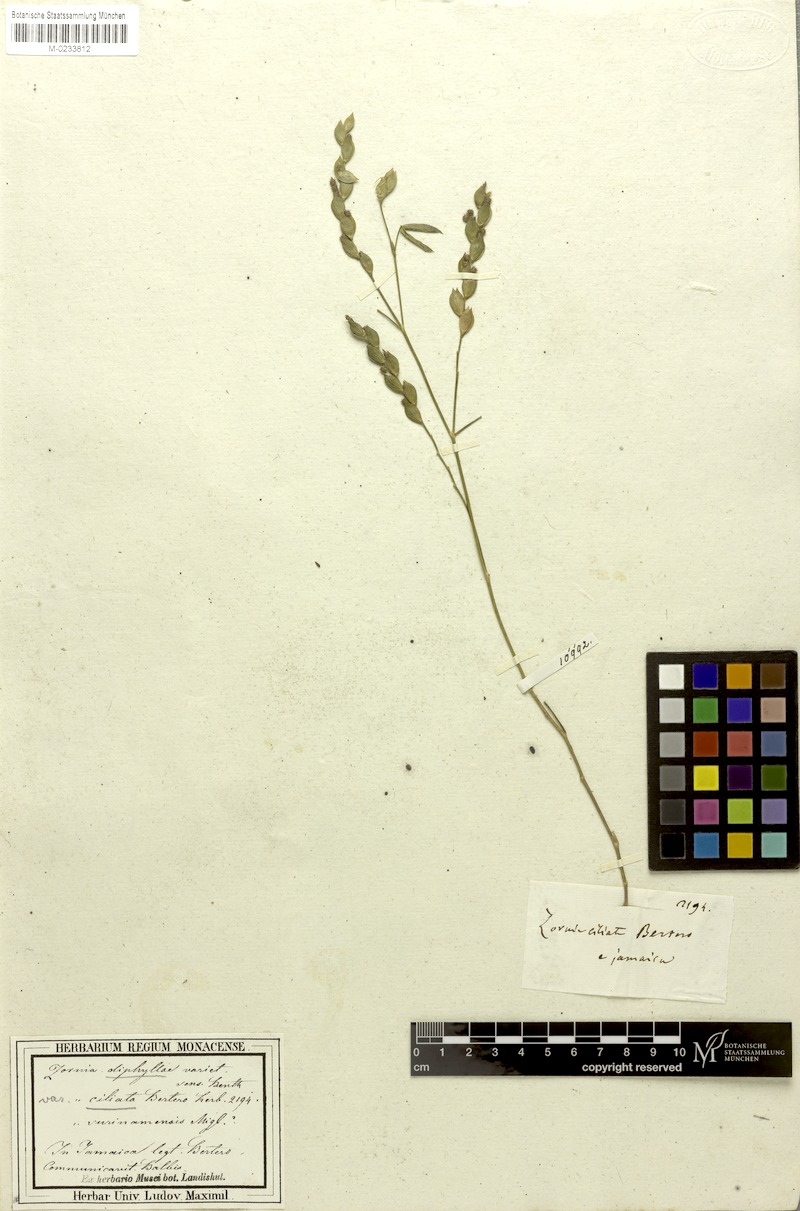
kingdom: Plantae
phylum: Tracheophyta
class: Magnoliopsida
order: Fabales
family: Fabaceae
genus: Zornia
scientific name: Zornia diphylla
